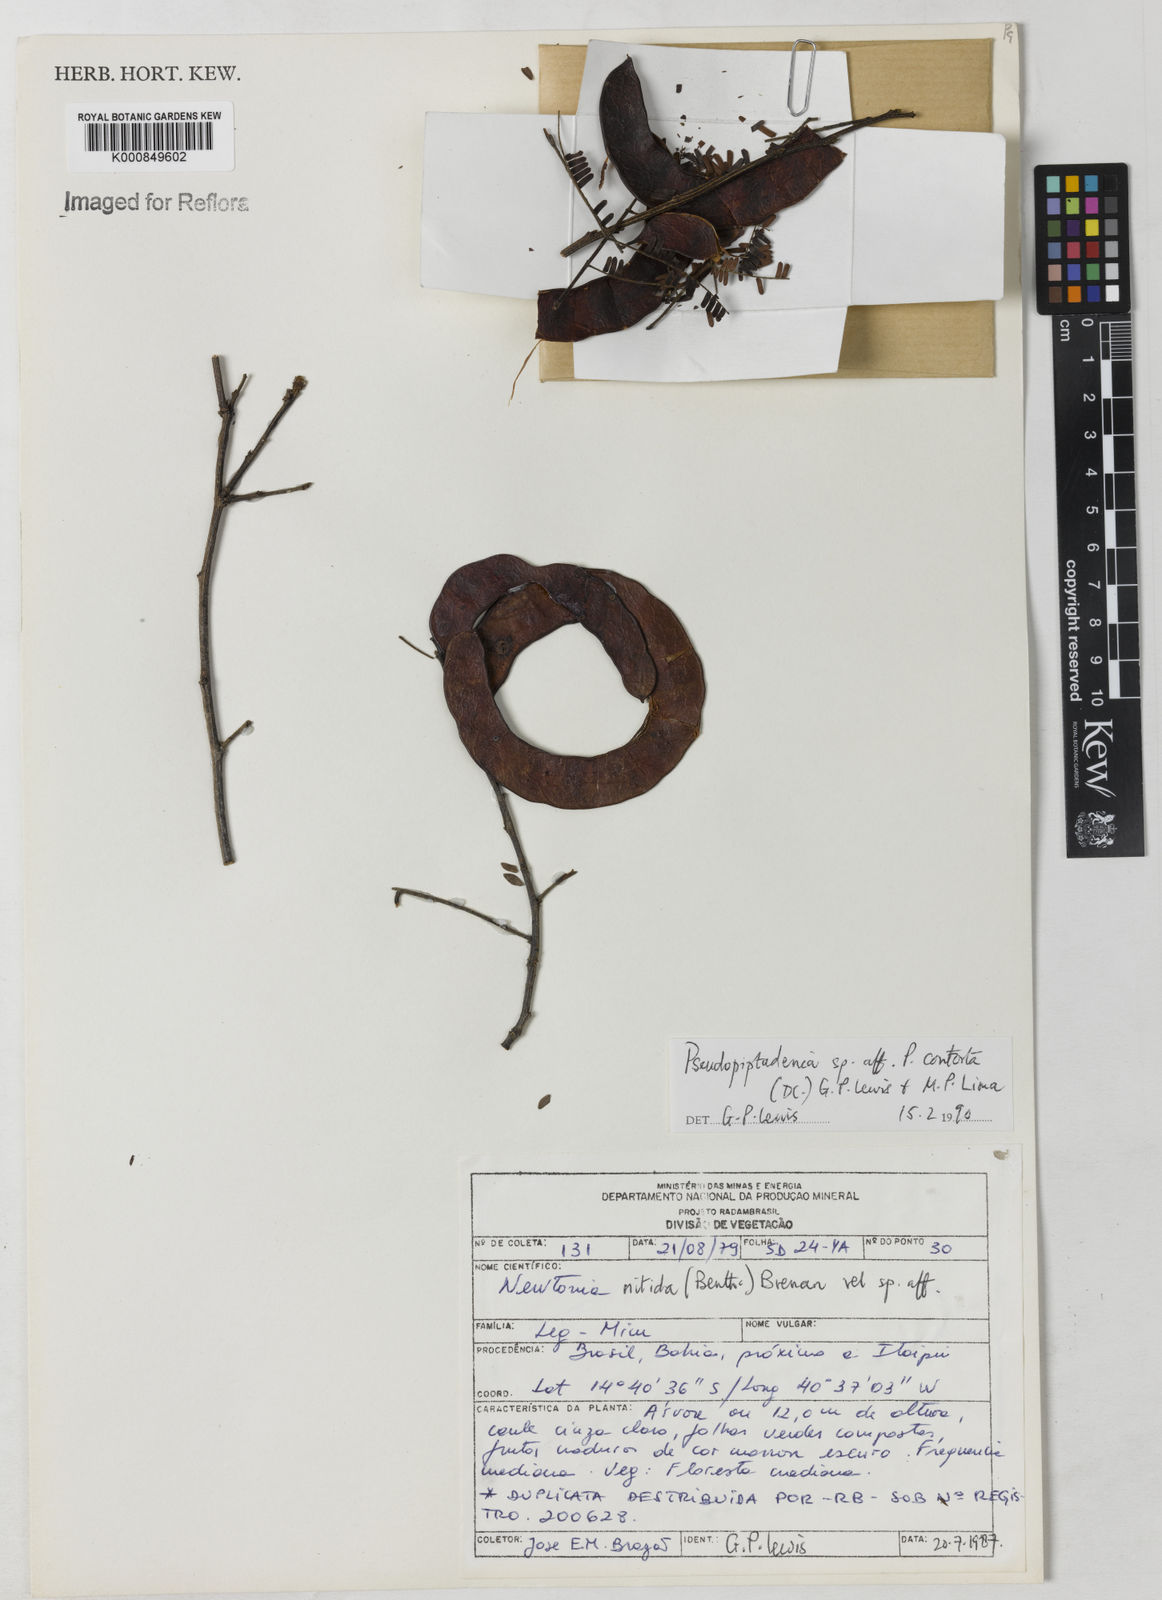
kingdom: Plantae
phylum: Tracheophyta
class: Magnoliopsida
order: Fabales
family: Fabaceae
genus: Pseudopiptadenia
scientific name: Pseudopiptadenia
